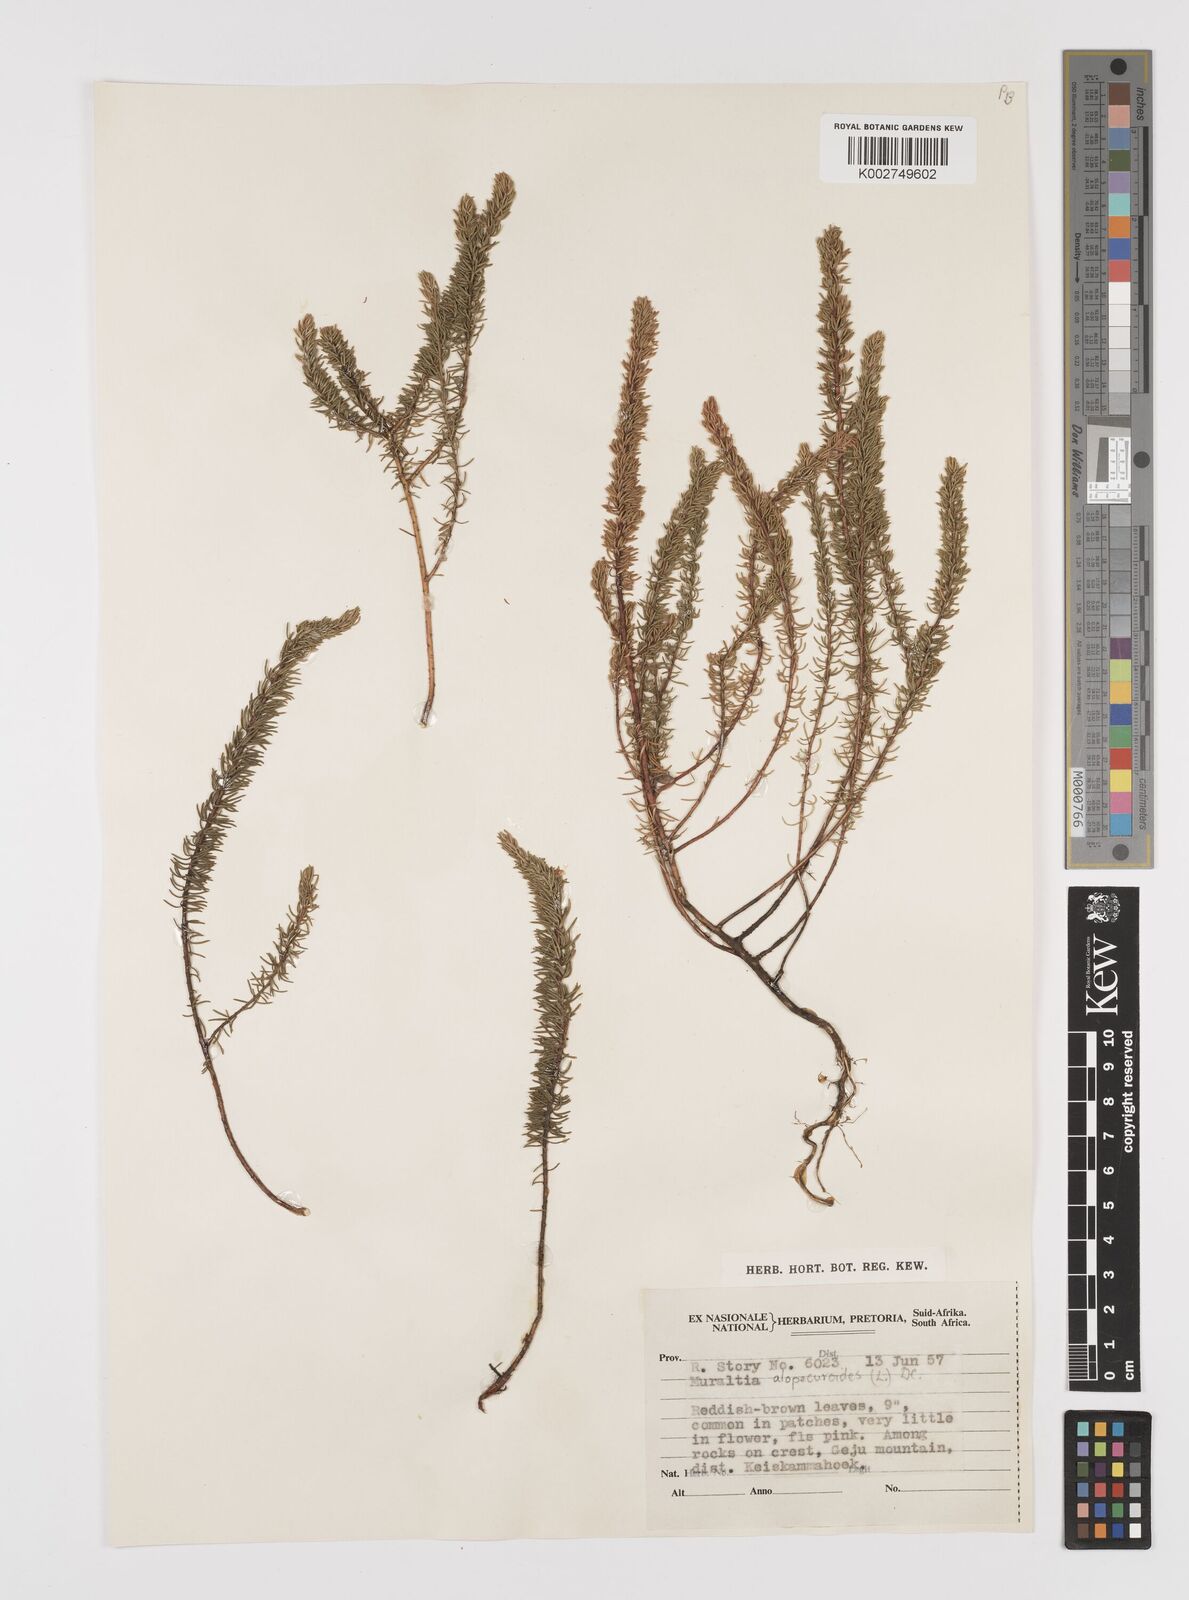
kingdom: Plantae
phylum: Tracheophyta
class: Magnoliopsida
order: Fabales
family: Polygalaceae
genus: Muraltia
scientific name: Muraltia alopecuroides
